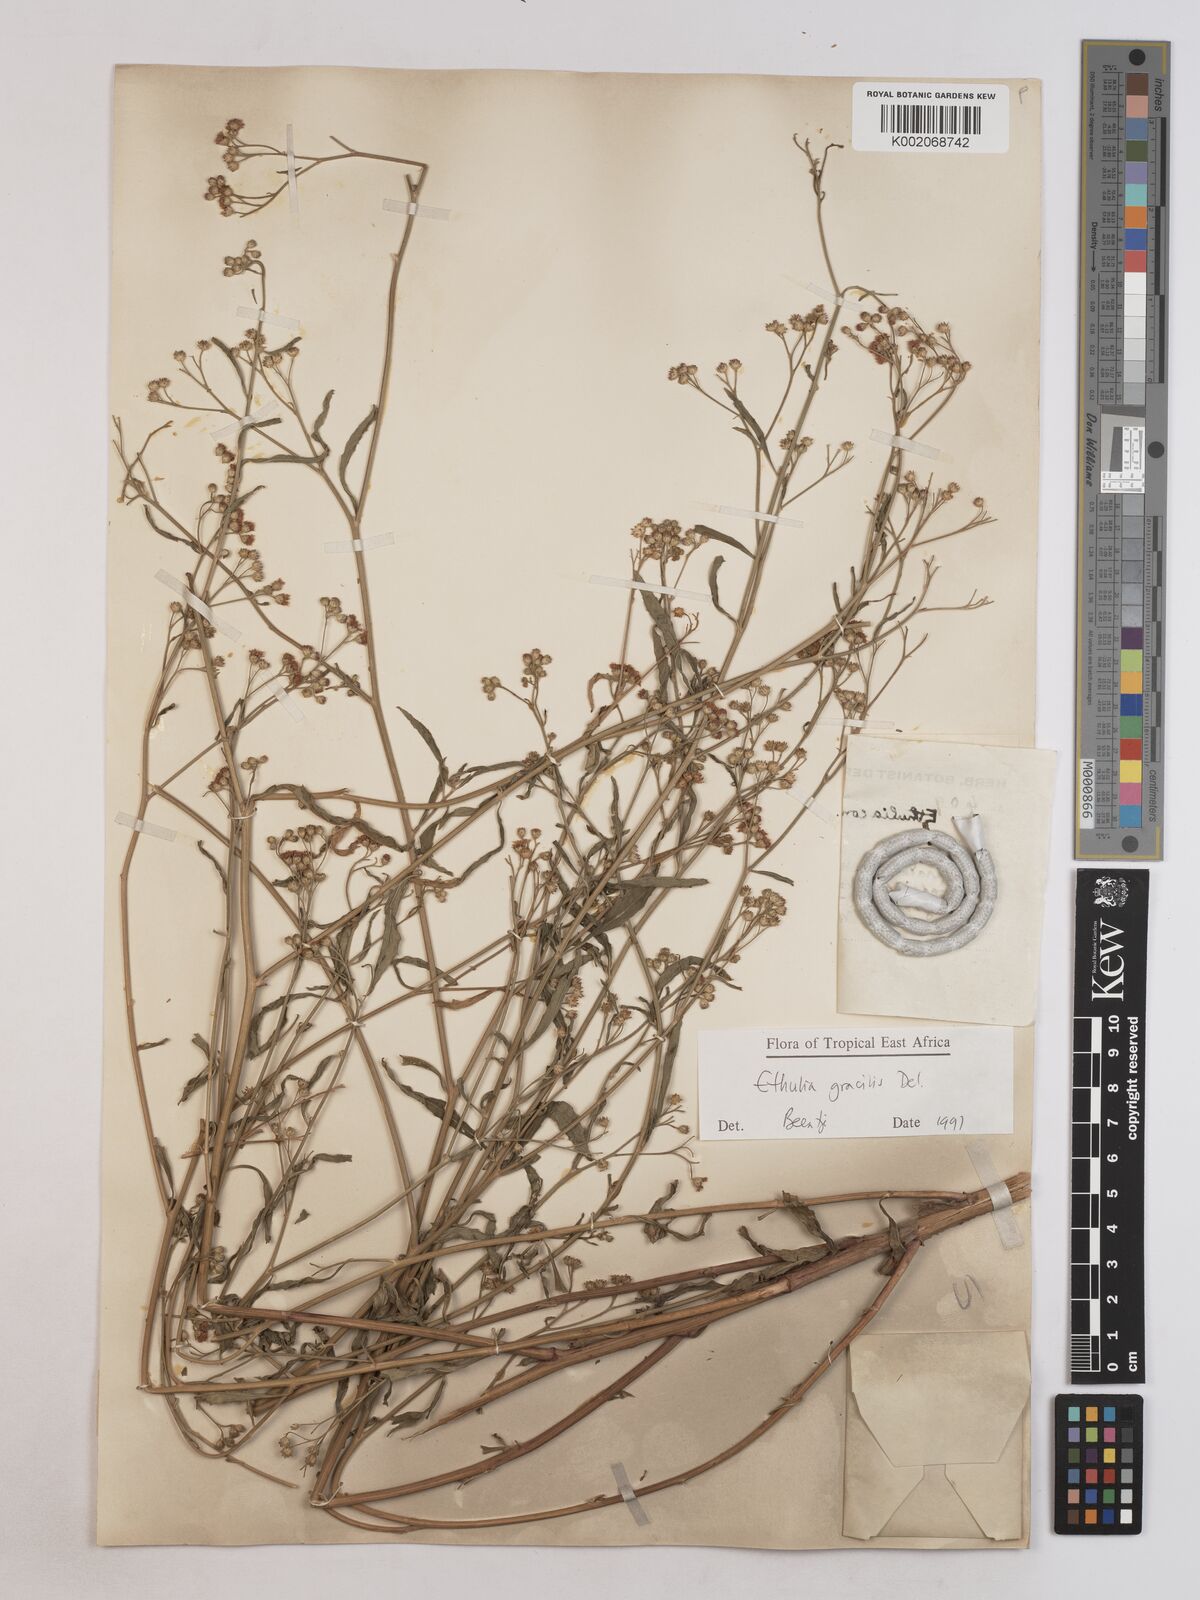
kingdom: Plantae
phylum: Tracheophyta
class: Magnoliopsida
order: Asterales
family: Asteraceae
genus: Ethulia
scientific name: Ethulia gracilis
